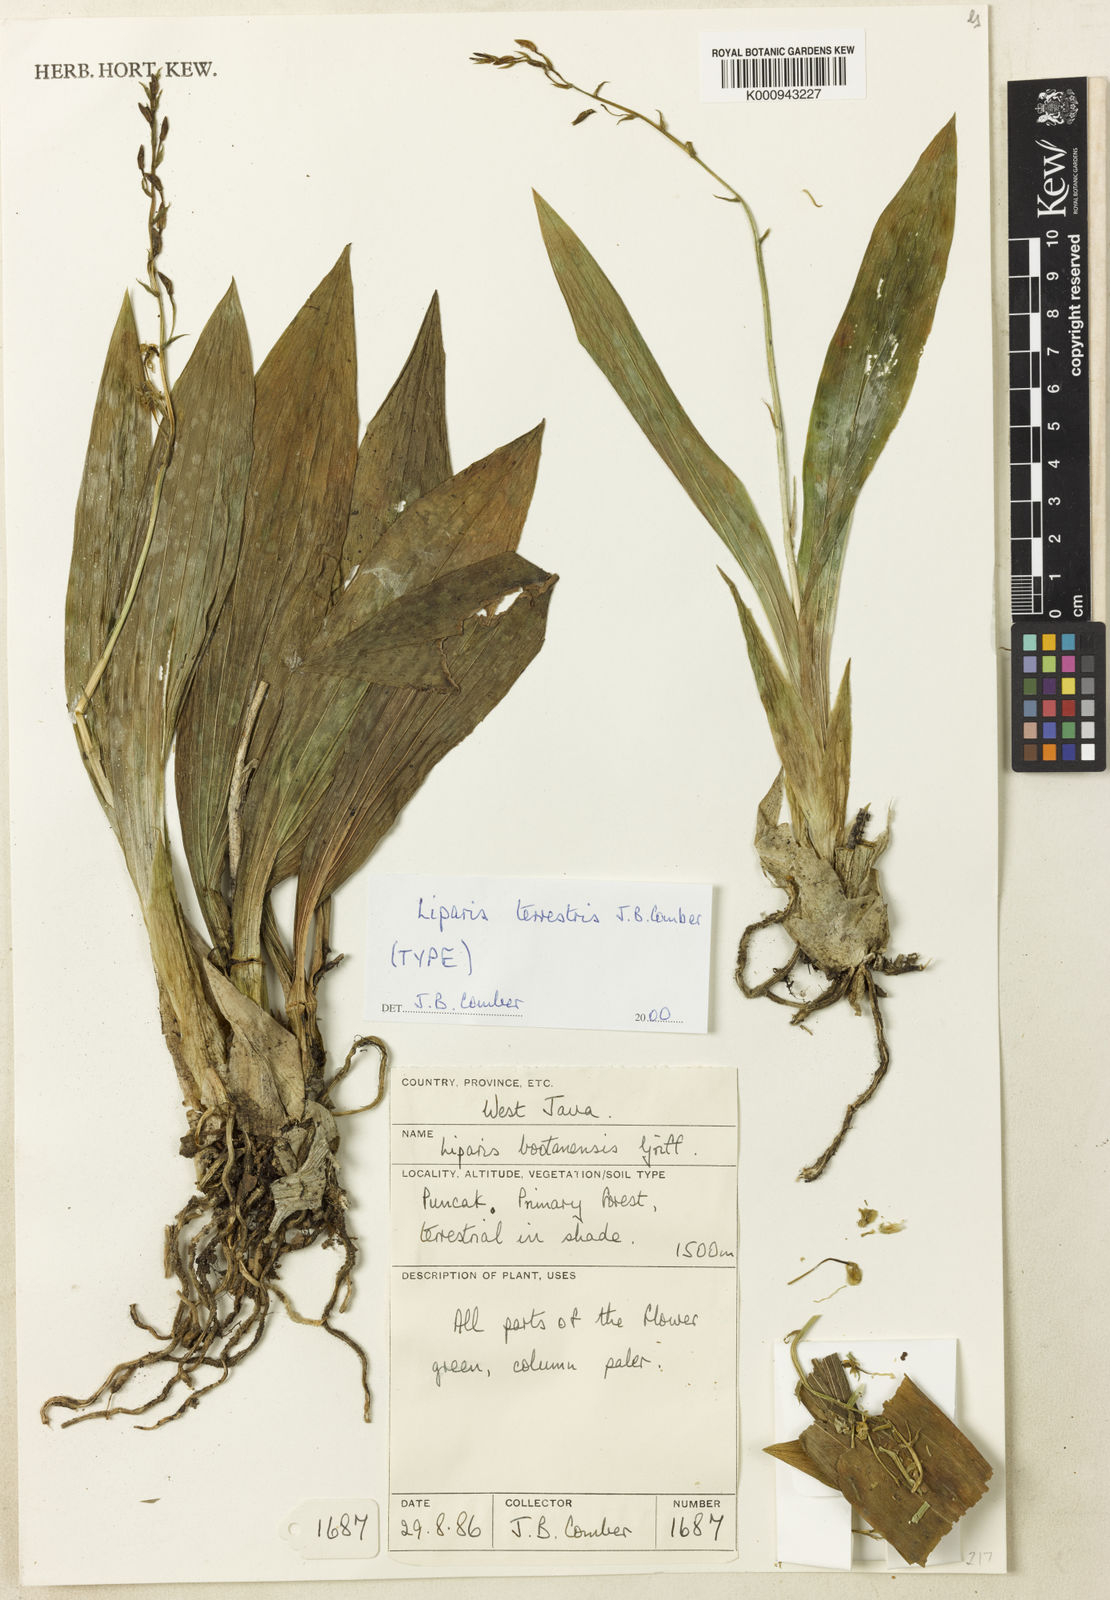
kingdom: Plantae
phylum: Tracheophyta
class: Liliopsida
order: Asparagales
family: Orchidaceae
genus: Liparis
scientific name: Liparis halconensis
